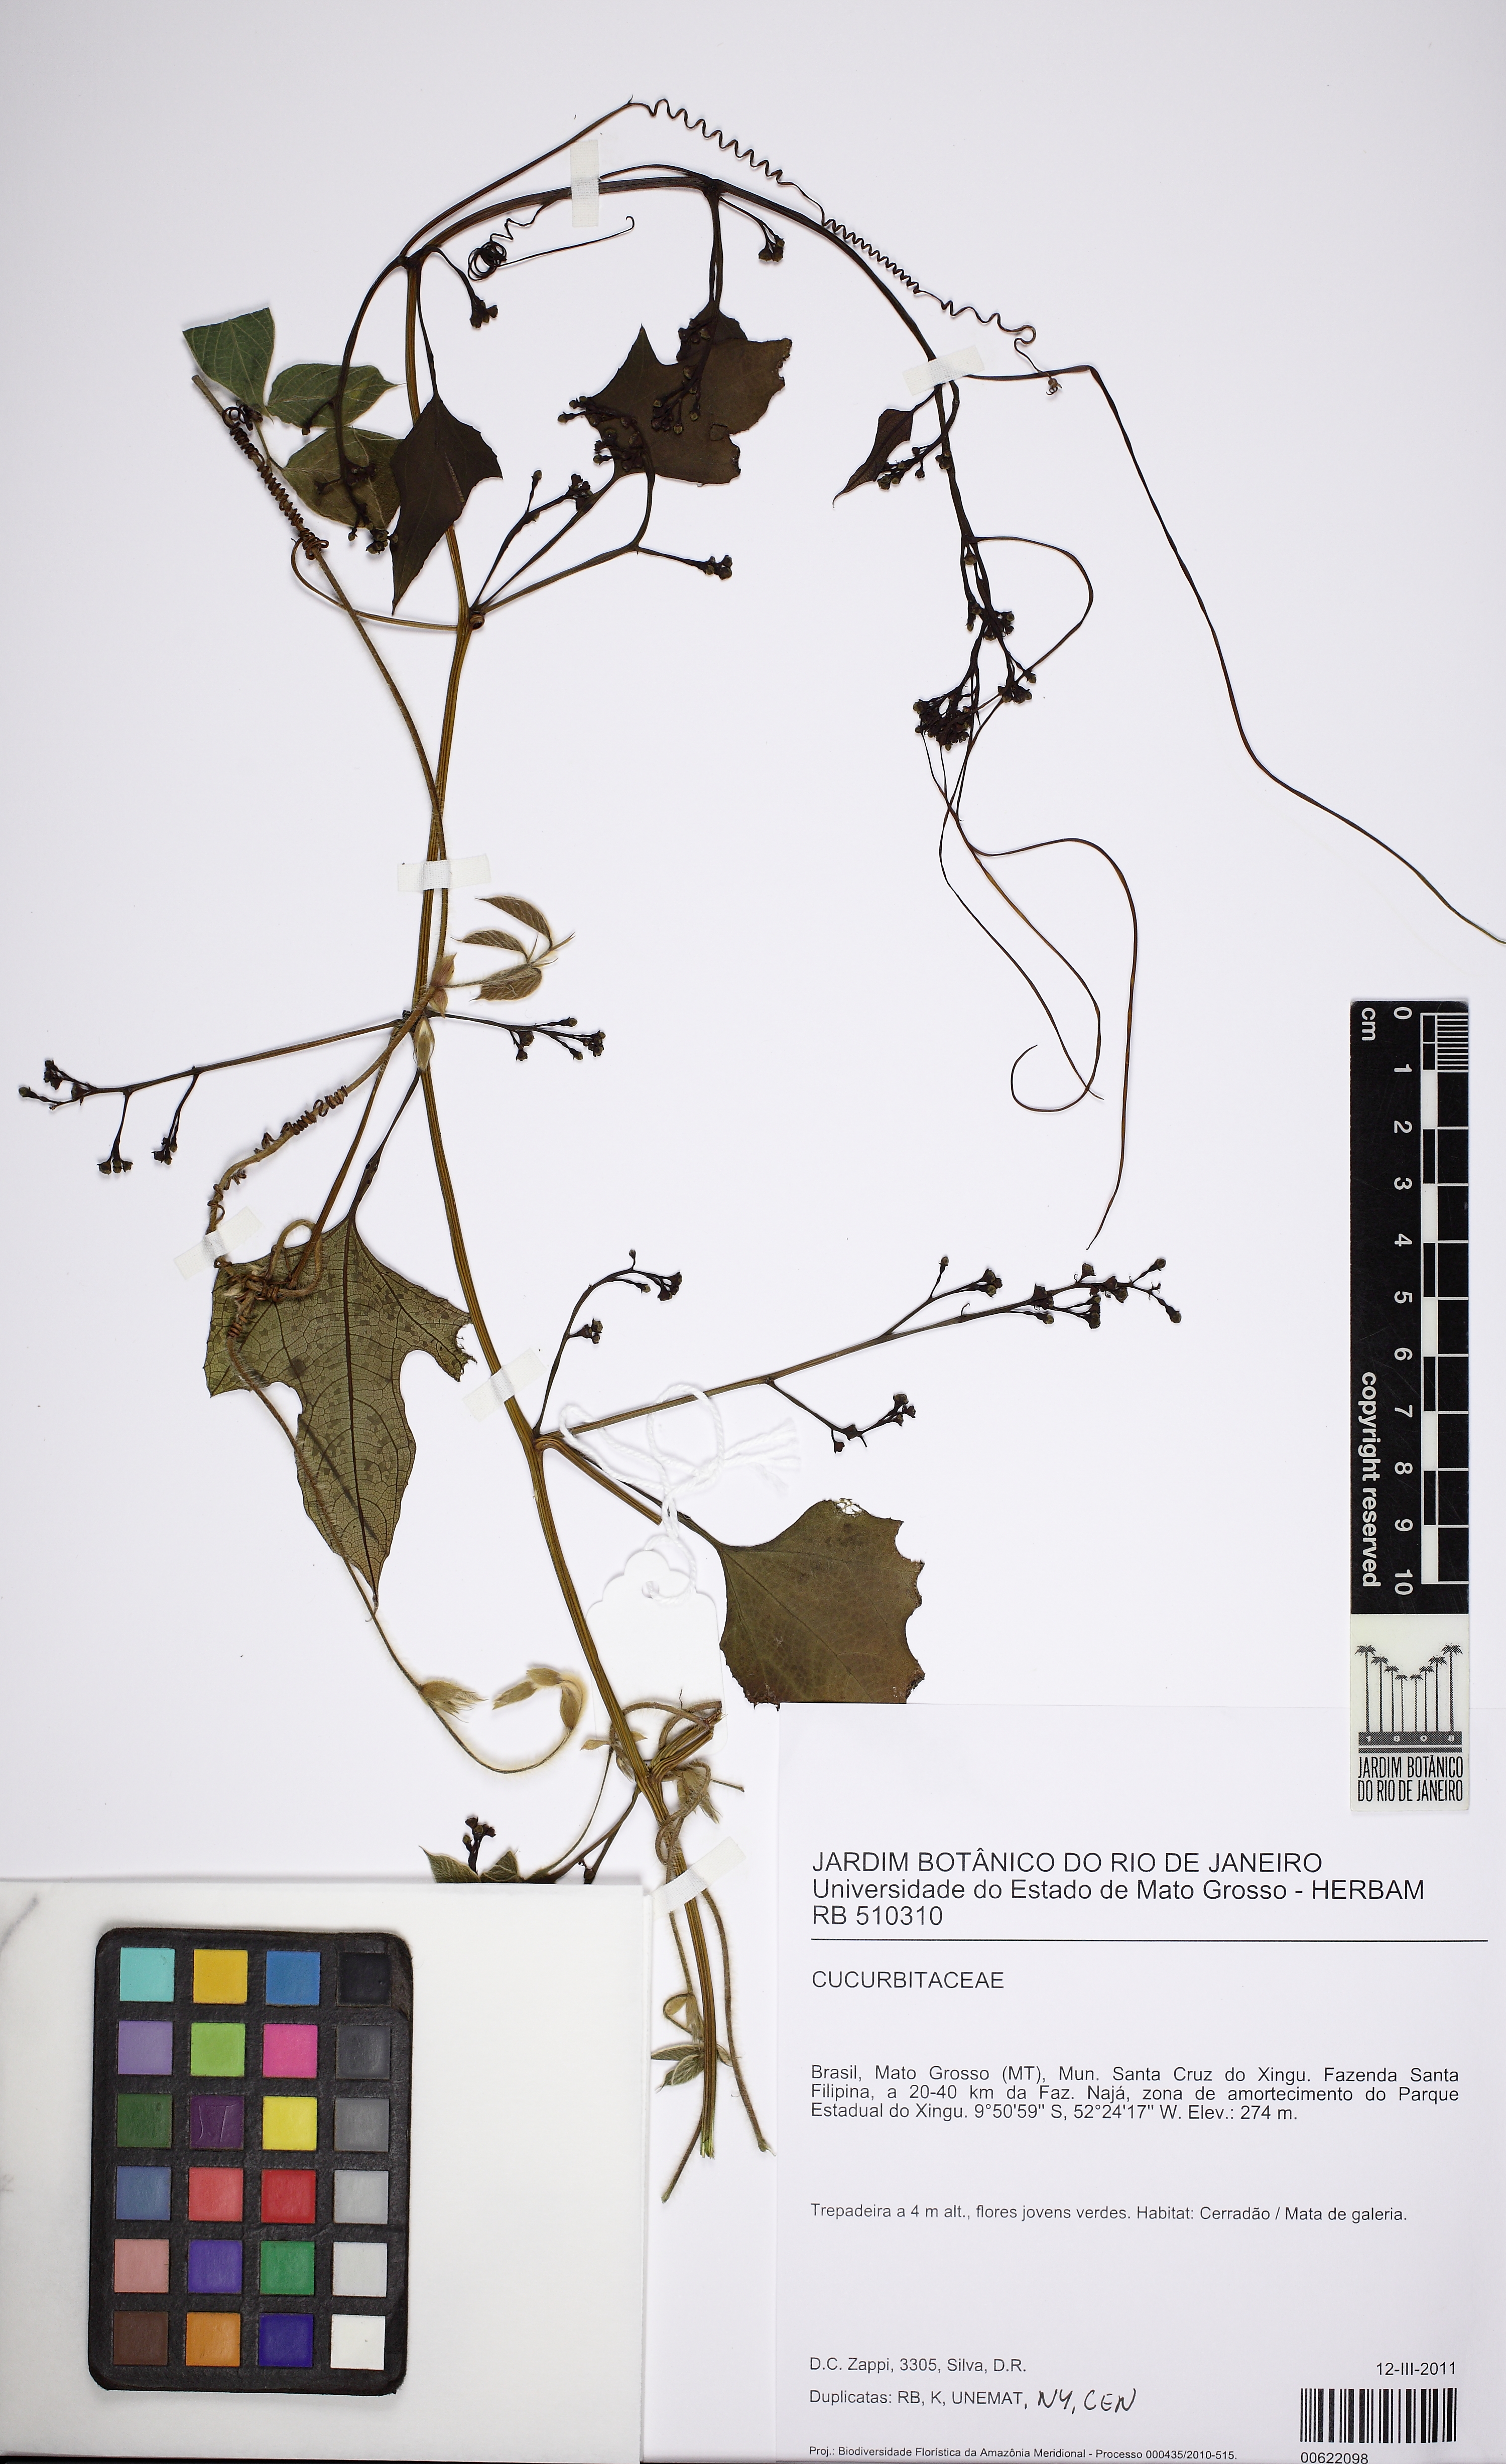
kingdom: Plantae
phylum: Tracheophyta
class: Magnoliopsida
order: Cucurbitales
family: Cucurbitaceae
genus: Cayaponia
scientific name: Cayaponia tayuya
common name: Tayuya
